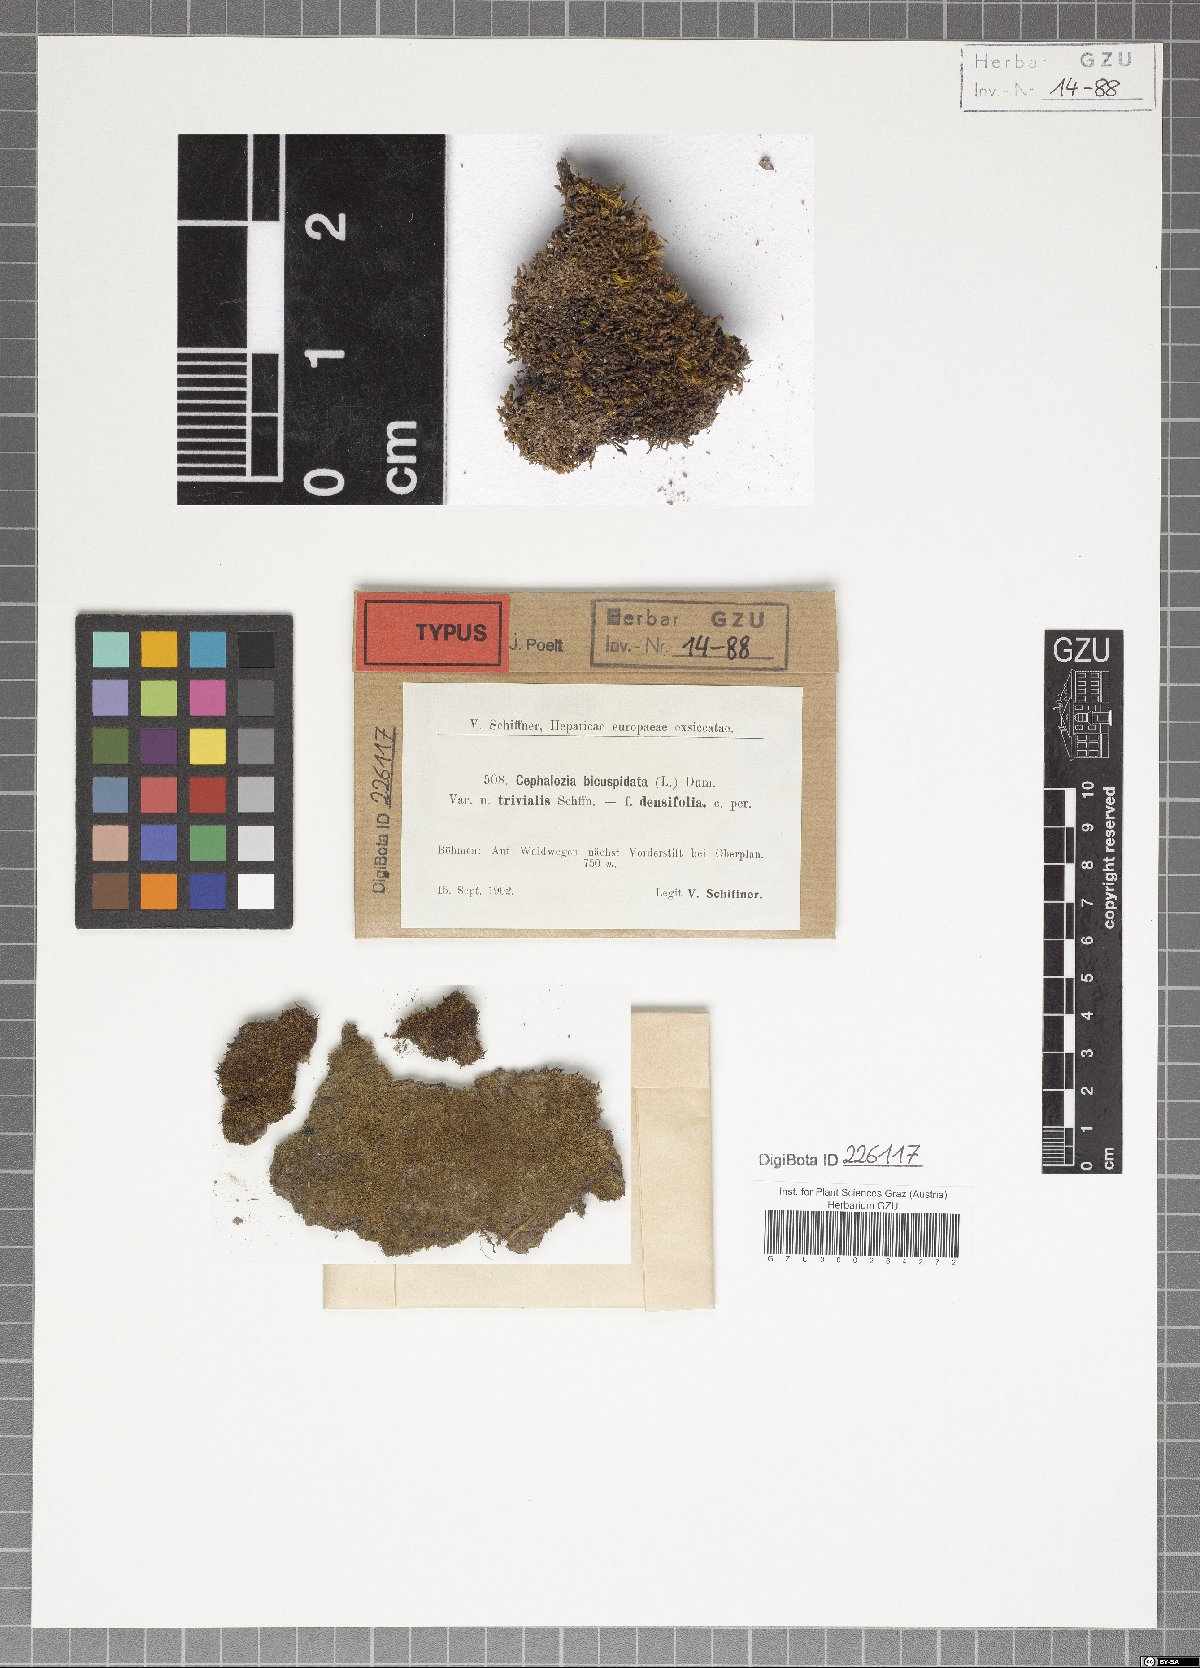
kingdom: Plantae
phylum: Marchantiophyta
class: Jungermanniopsida
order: Jungermanniales
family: Cephaloziaceae
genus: Cephalozia
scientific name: Cephalozia bicuspidata
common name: Two-horned pincerwort
